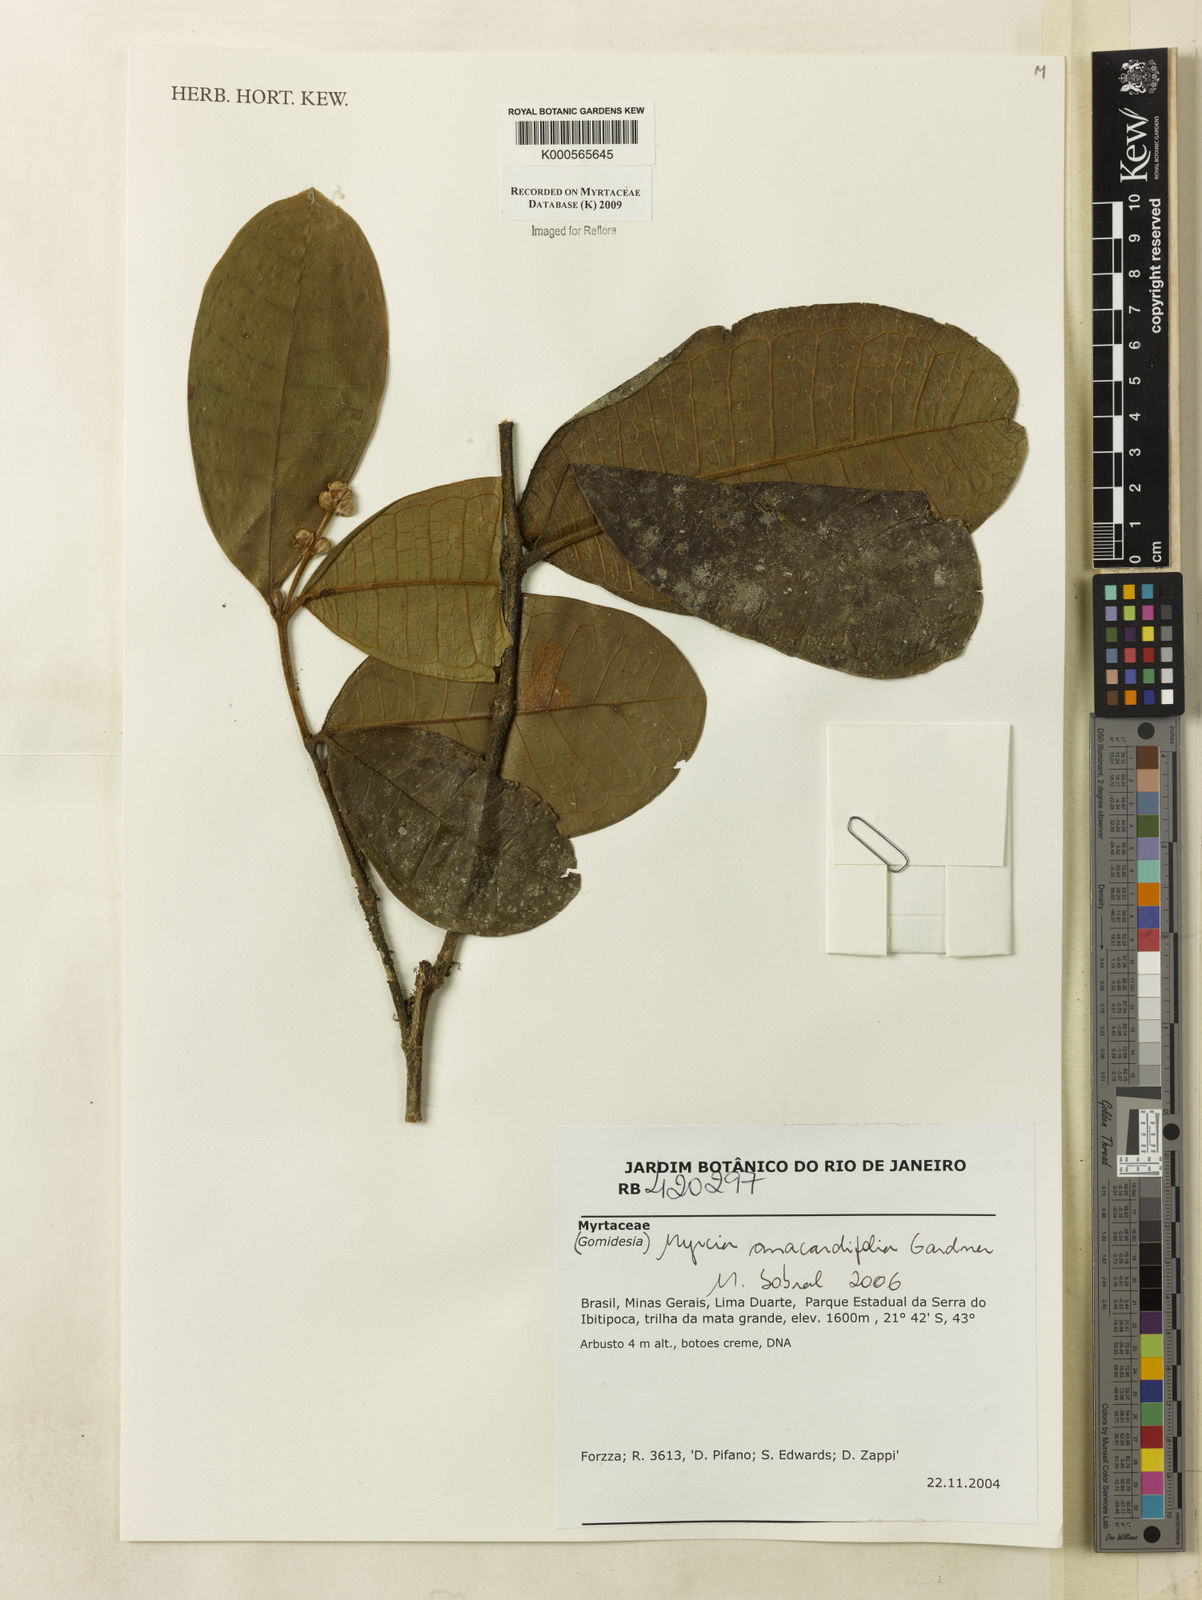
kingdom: Plantae
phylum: Tracheophyta
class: Magnoliopsida
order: Myrtales
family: Myrtaceae
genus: Myrcia
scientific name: Myrcia anacardiifolia
